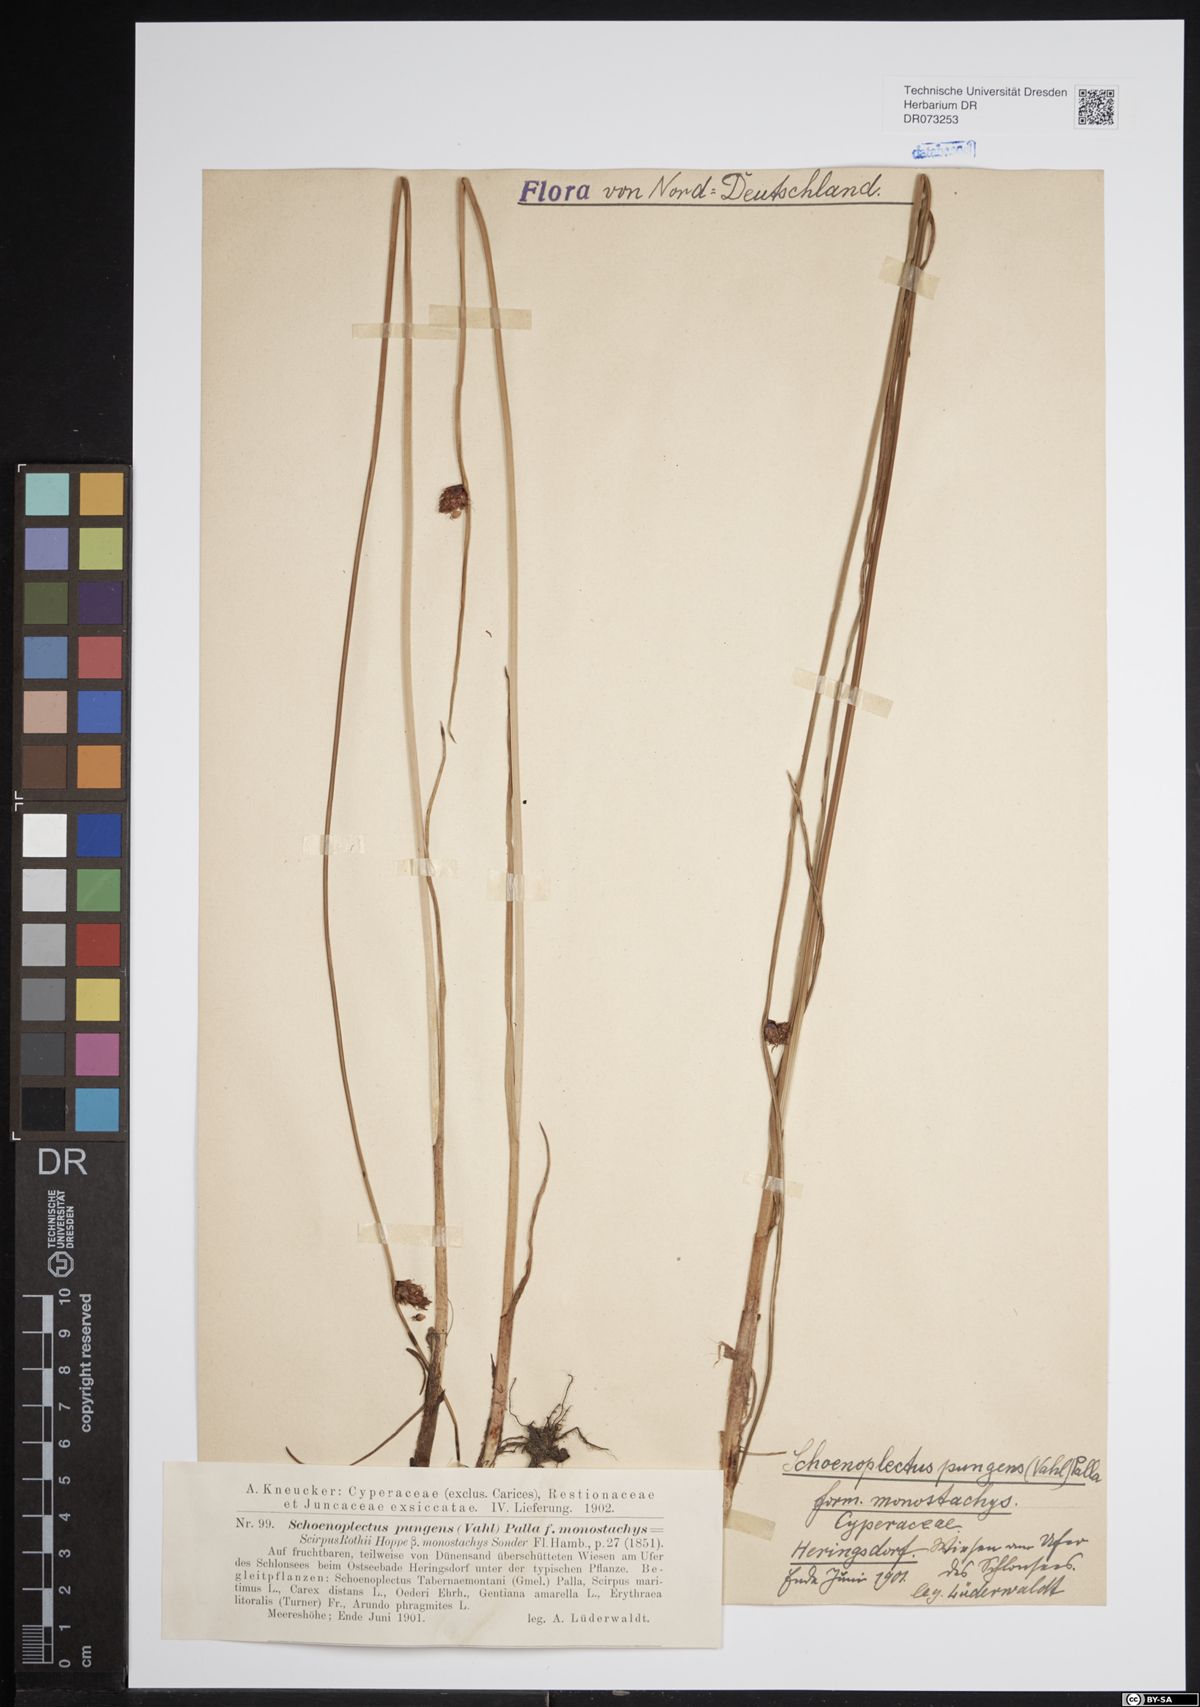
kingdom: Plantae
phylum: Tracheophyta
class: Liliopsida
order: Poales
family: Cyperaceae
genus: Schoenoplectus
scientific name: Schoenoplectus pungens
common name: Sharp club-rush
